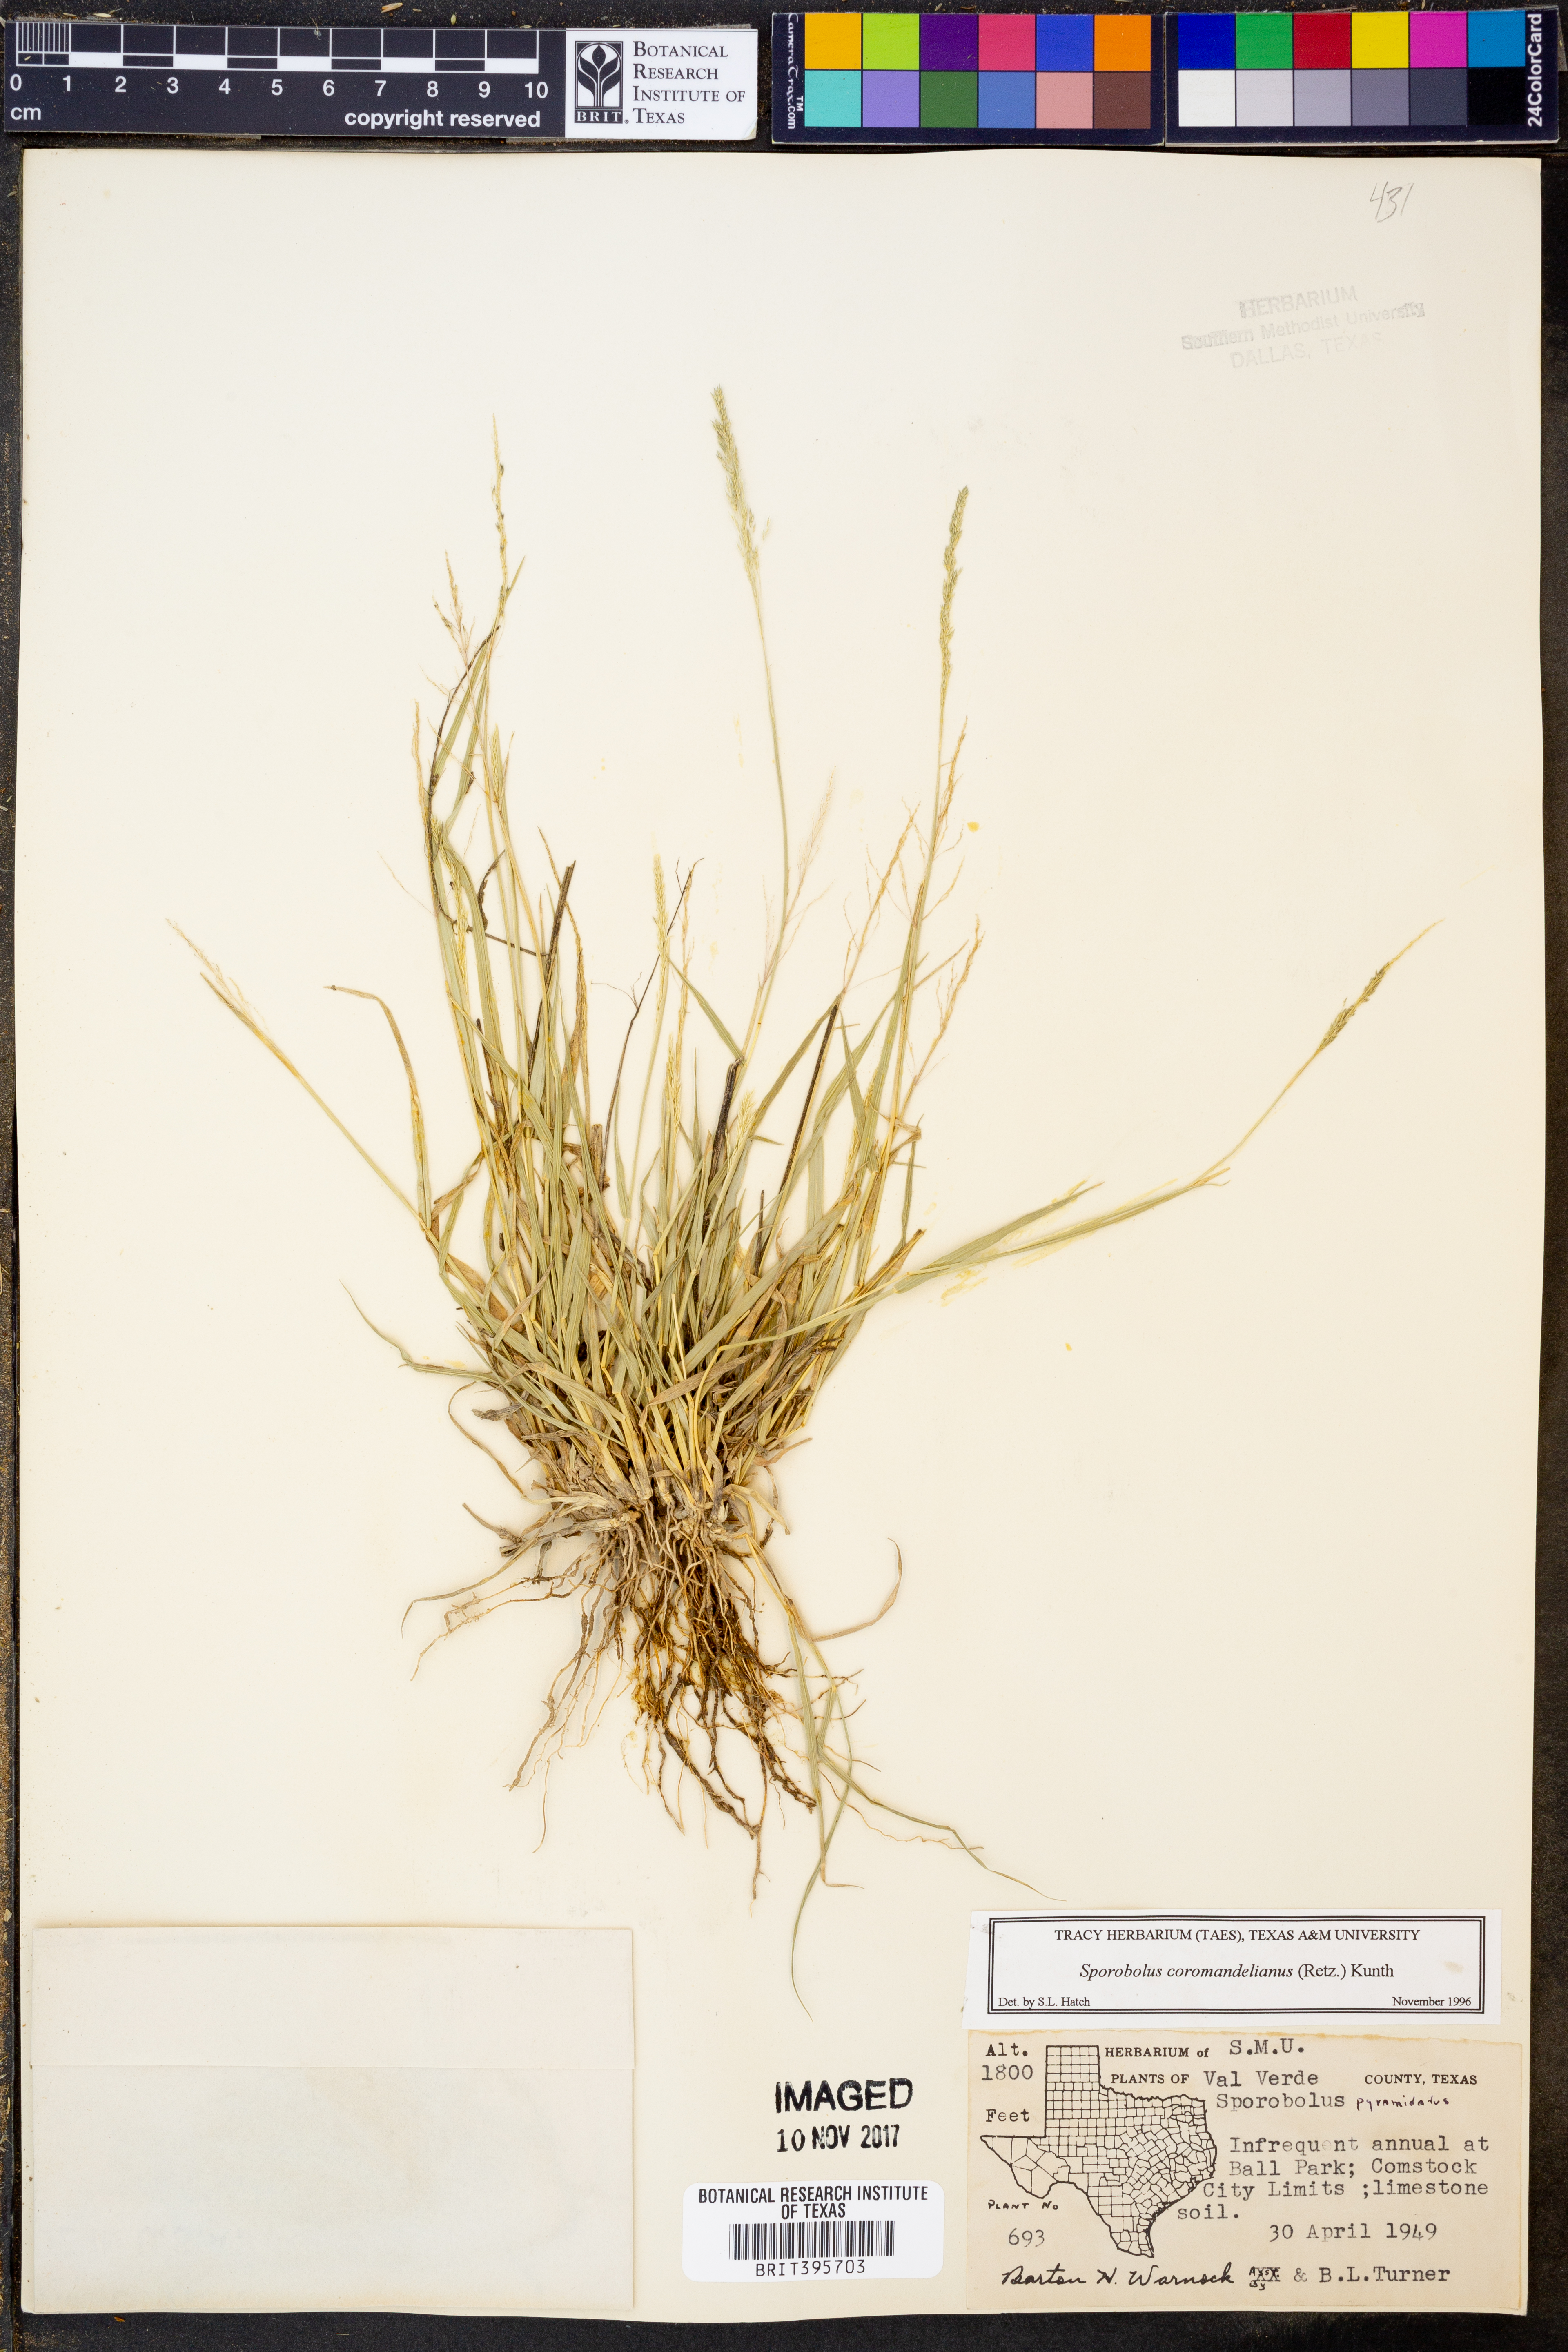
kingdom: Plantae
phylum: Tracheophyta
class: Liliopsida
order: Poales
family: Poaceae
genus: Sporobolus
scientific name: Sporobolus coromandelianus
